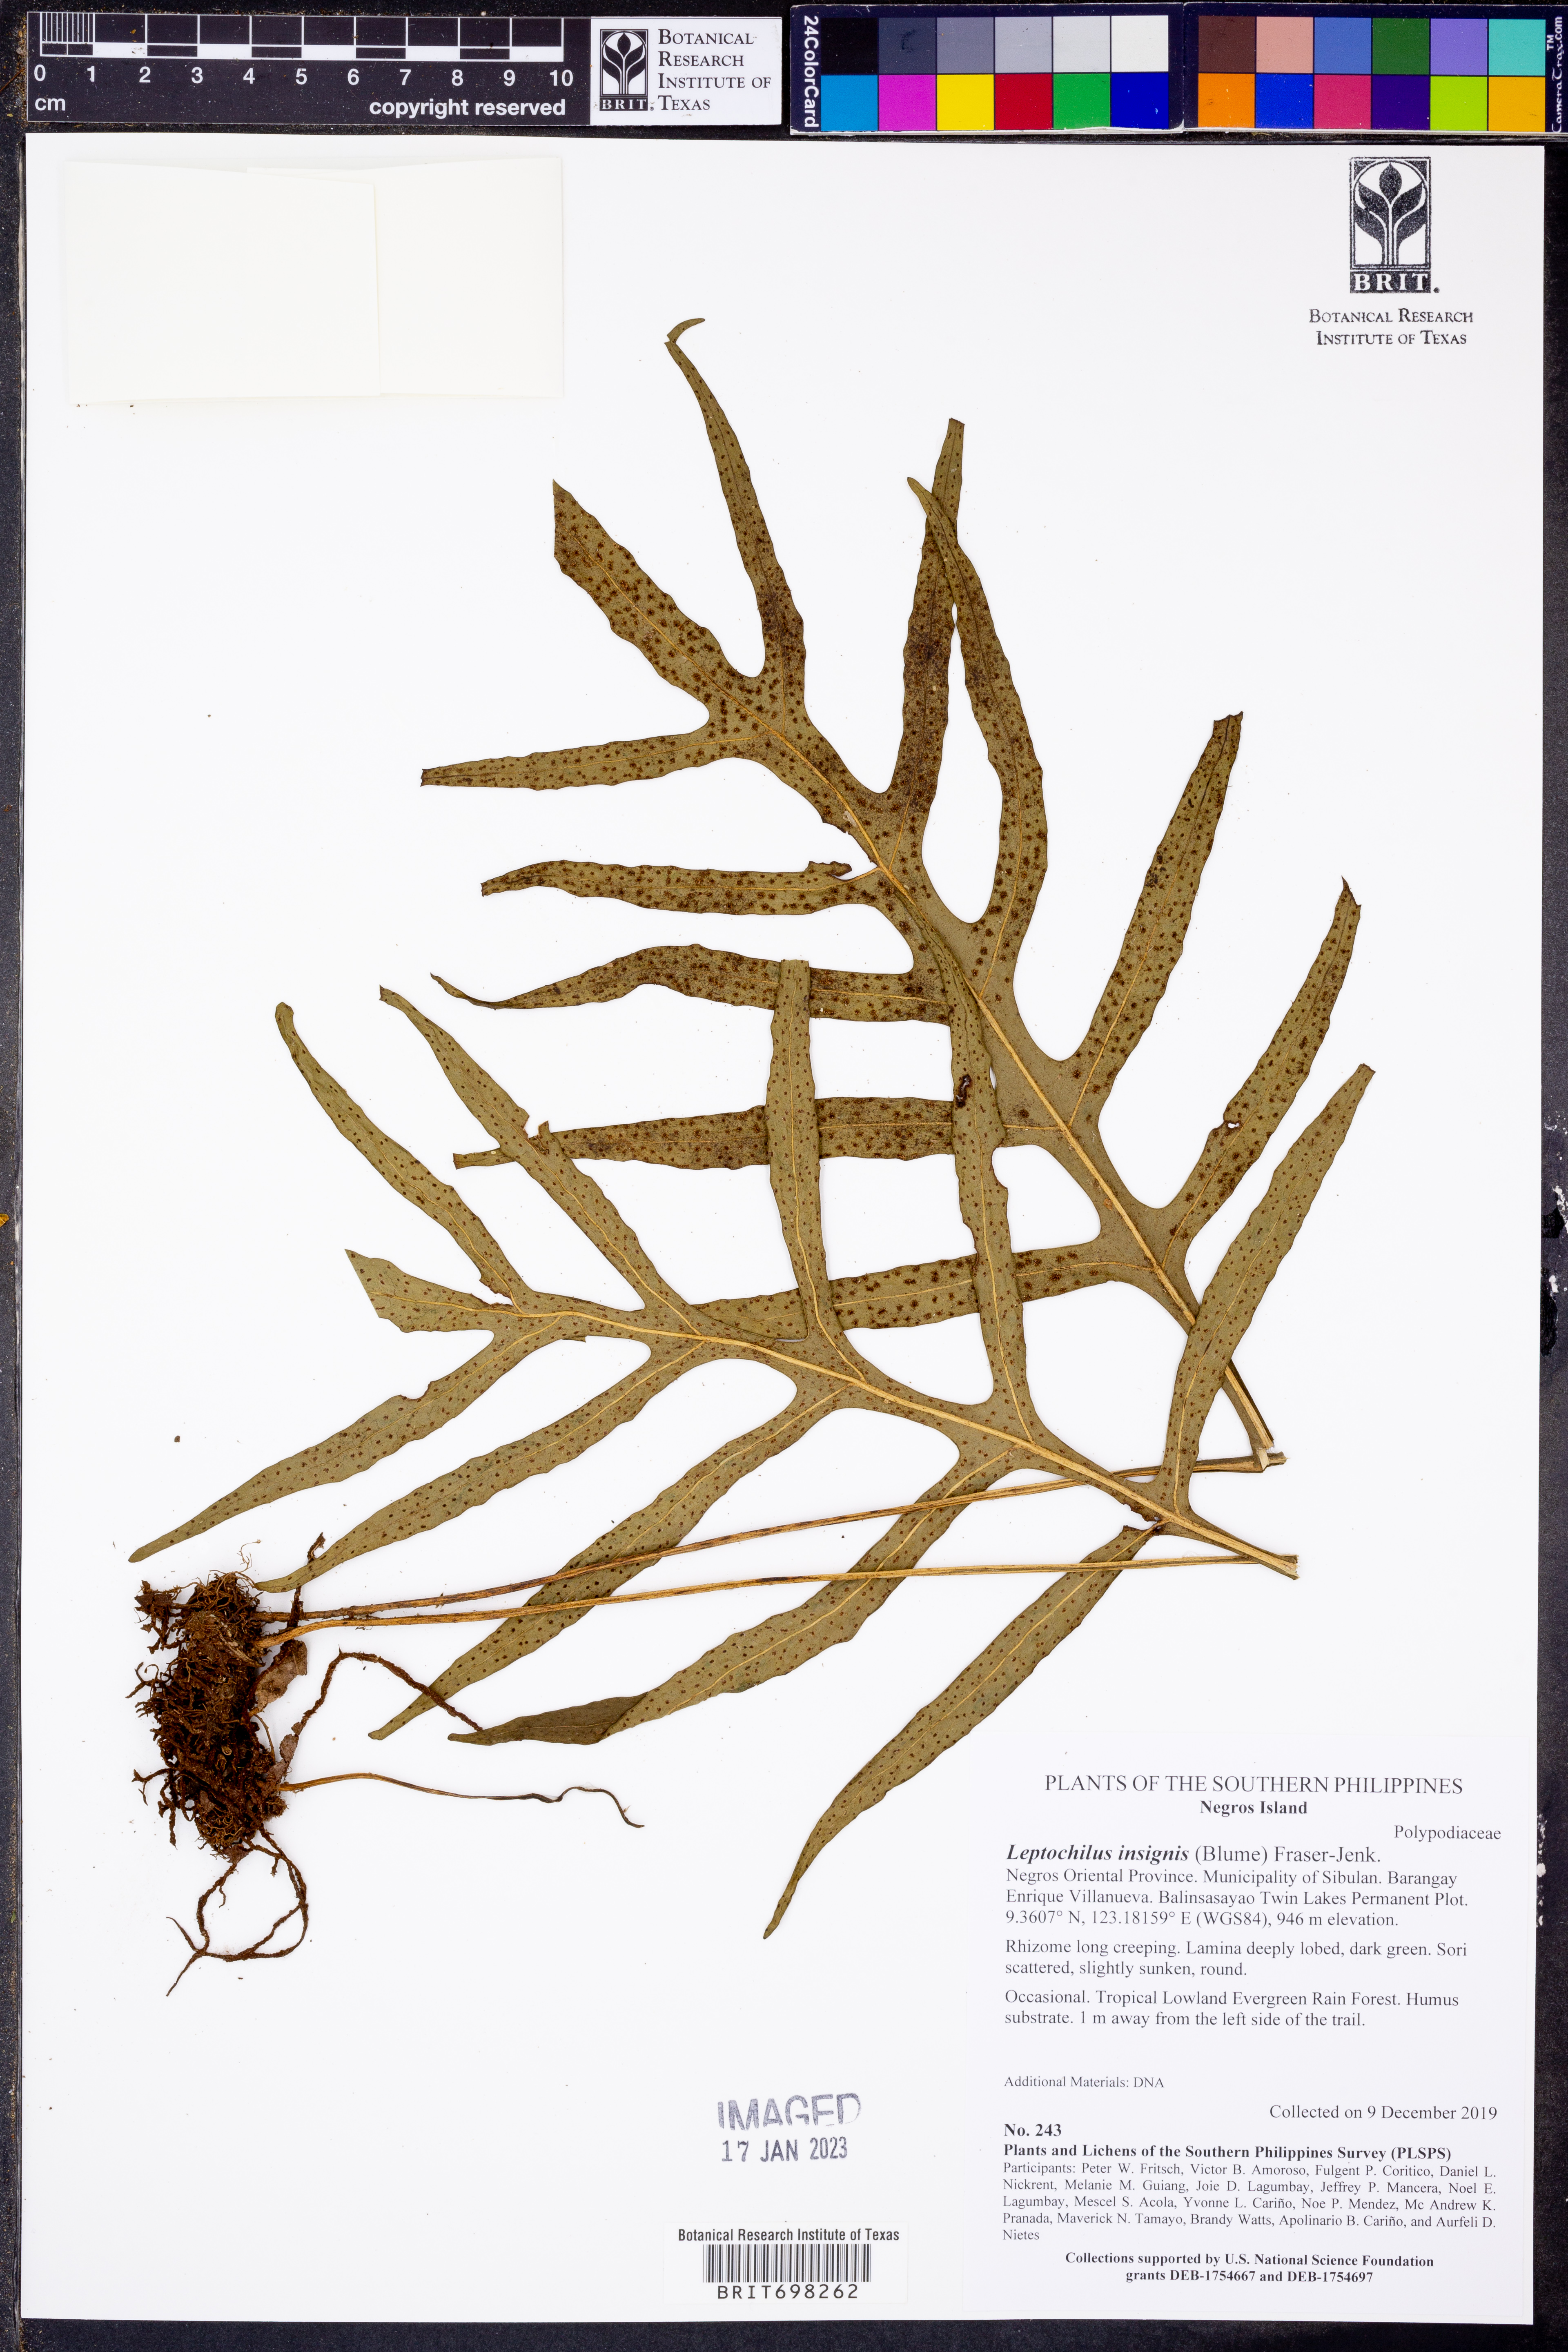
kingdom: Plantae
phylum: Tracheophyta
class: Polypodiopsida
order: Polypodiales
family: Polypodiaceae
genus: Leptochilus
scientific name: Leptochilus insignis
